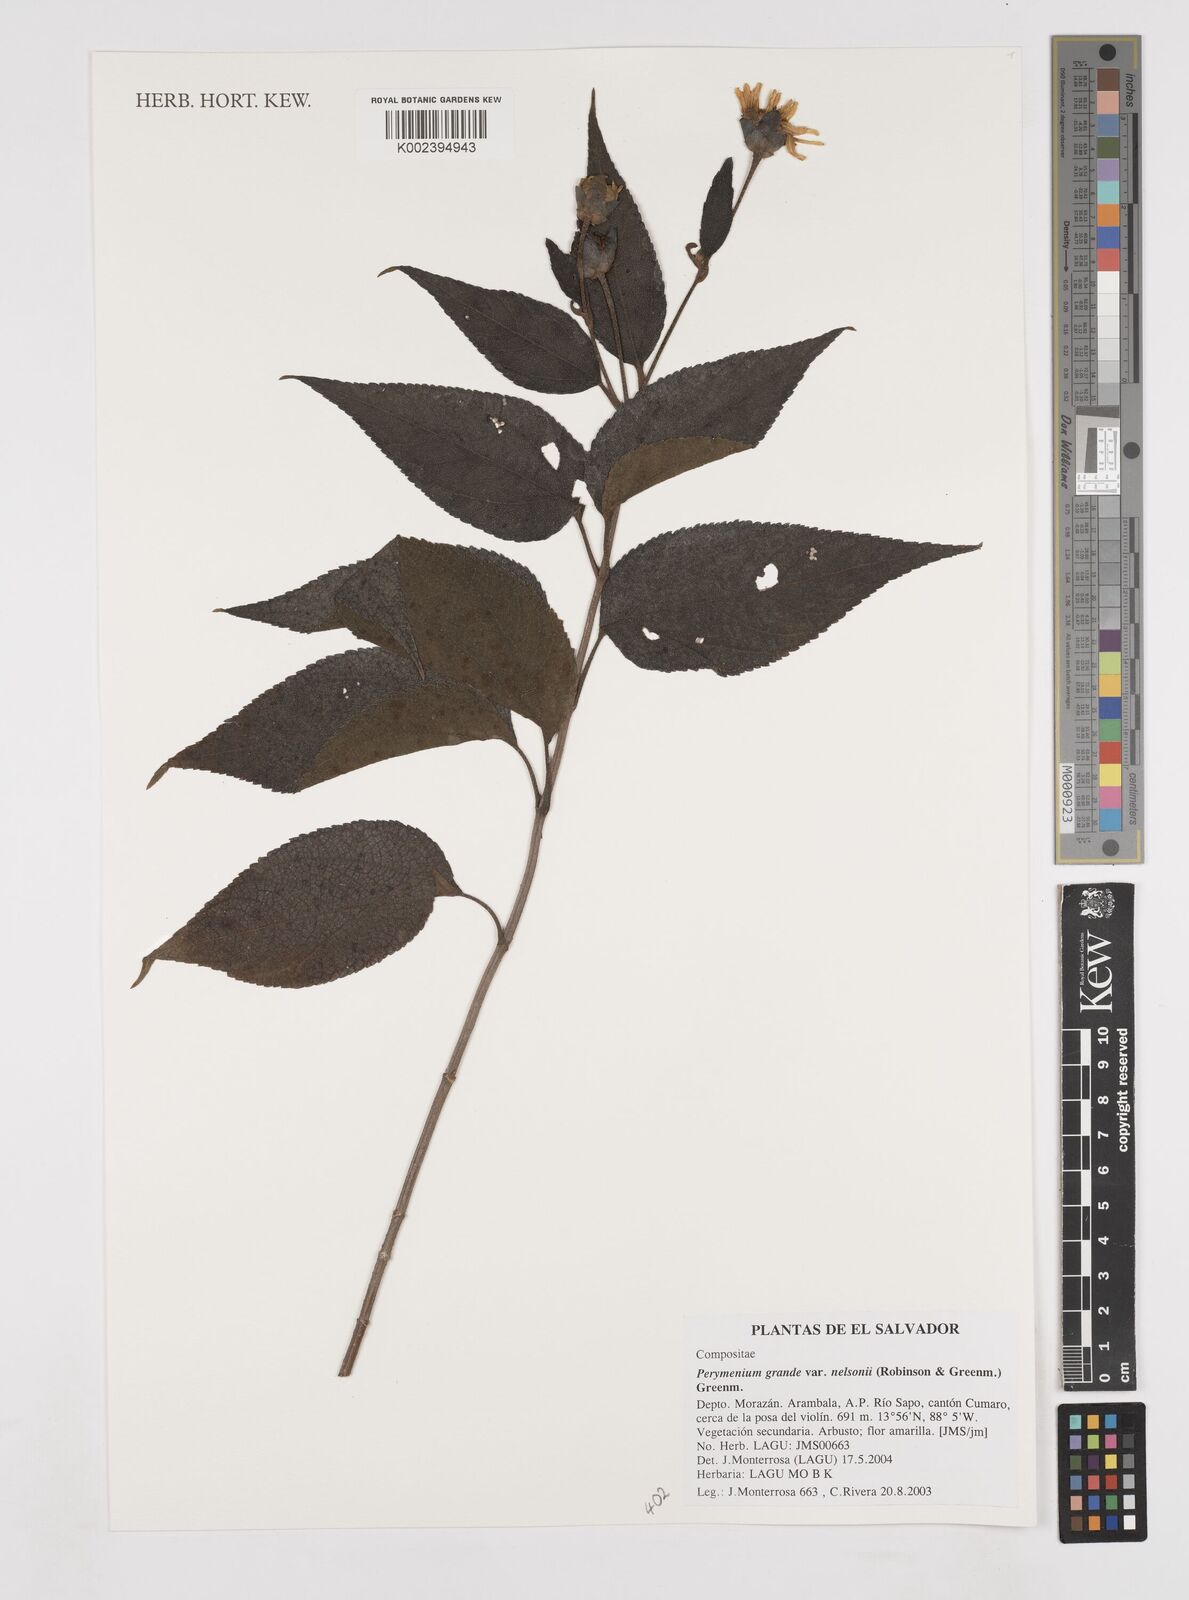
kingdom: Plantae
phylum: Tracheophyta
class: Magnoliopsida
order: Asterales
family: Asteraceae
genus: Perymenium
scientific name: Perymenium grande
